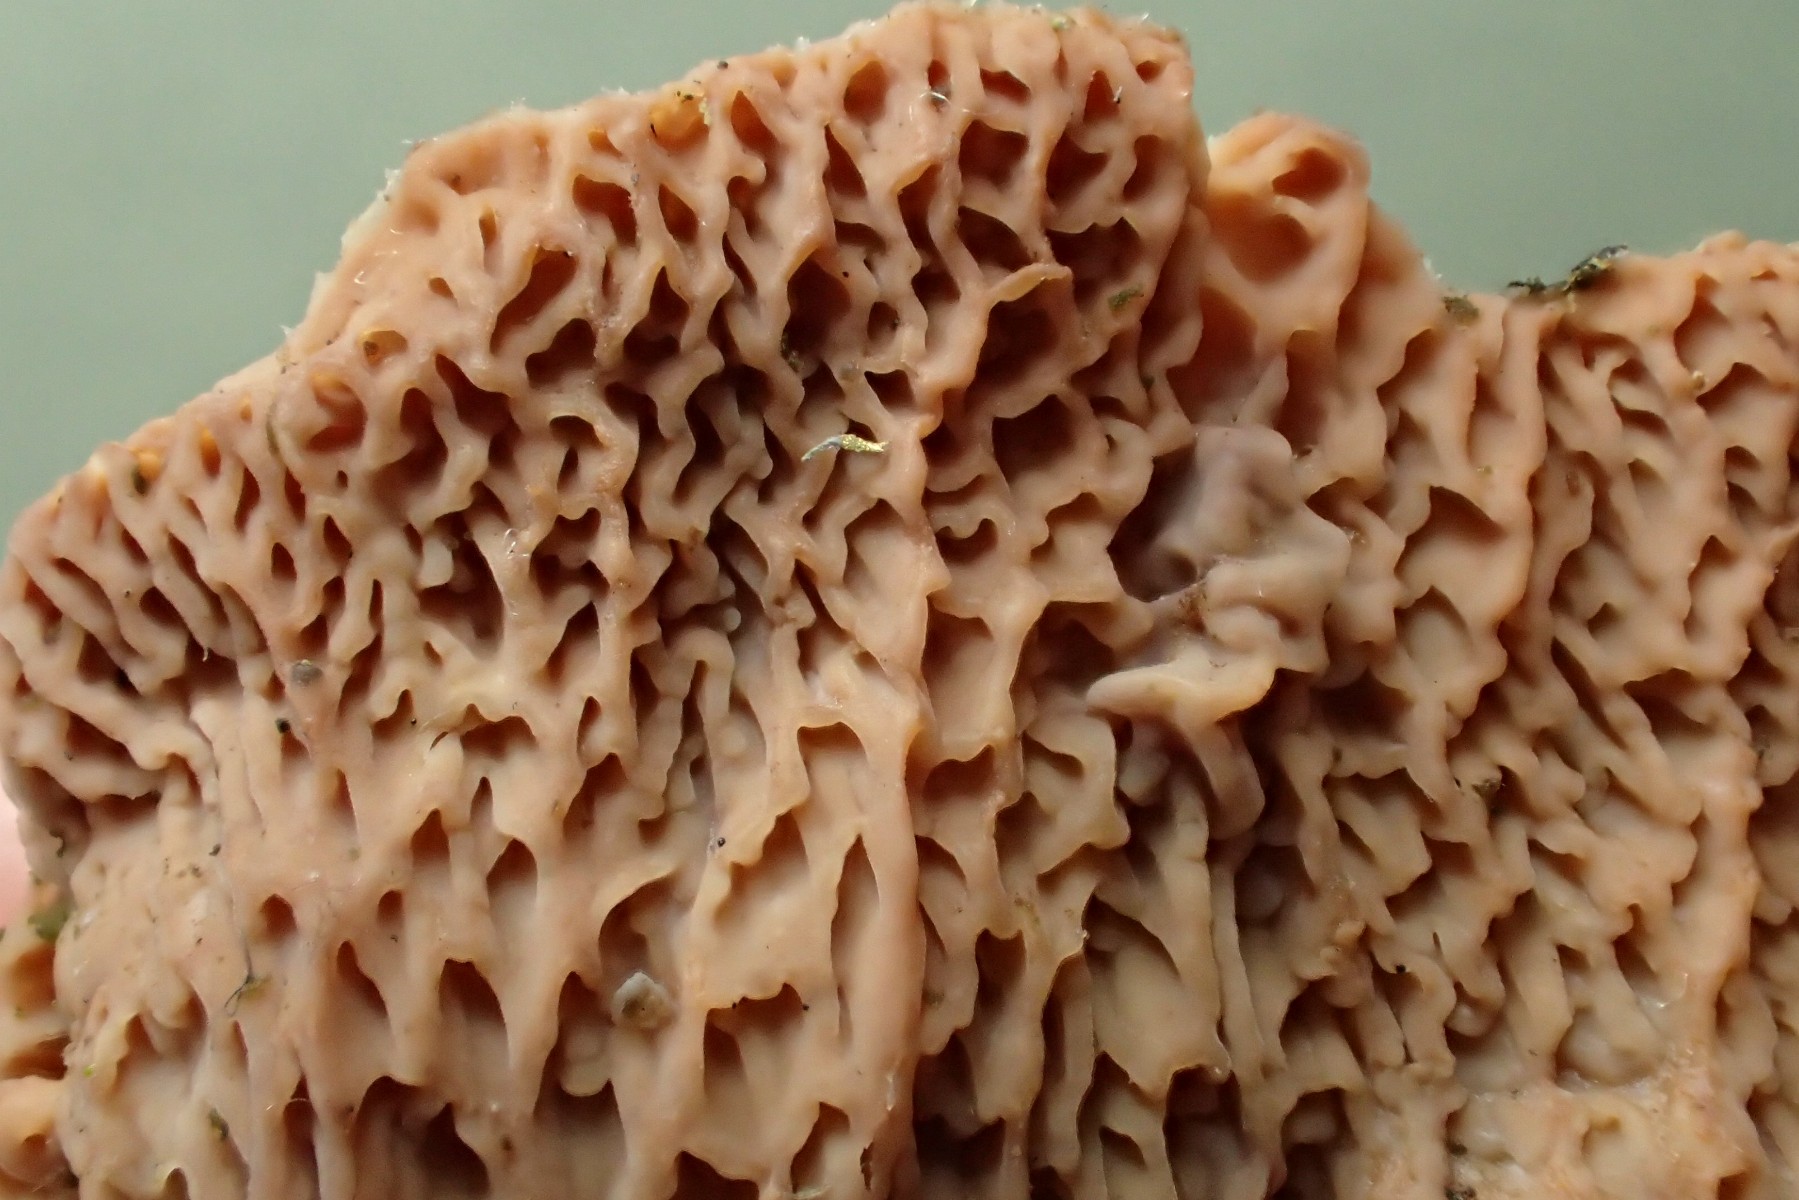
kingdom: Fungi
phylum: Basidiomycota
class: Agaricomycetes
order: Polyporales
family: Meruliaceae
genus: Phlebia
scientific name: Phlebia tremellosa
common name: bævrende åresvamp
